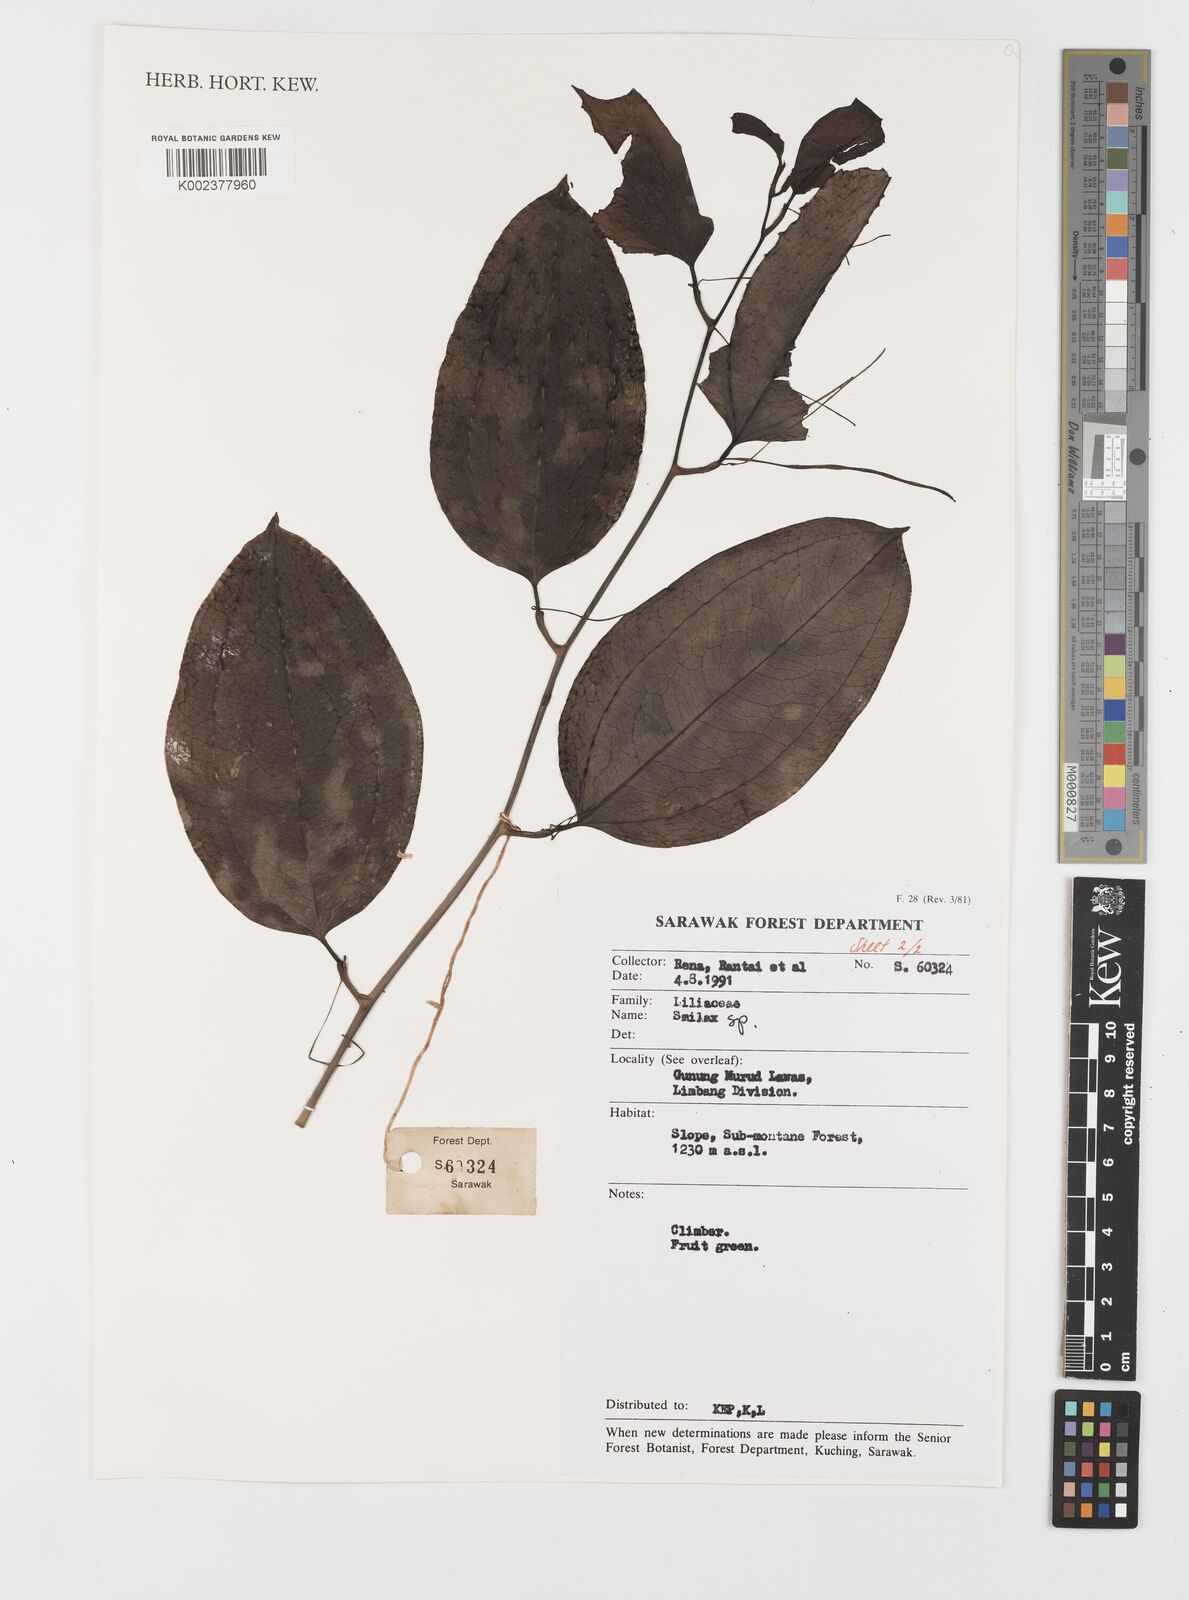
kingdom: Plantae
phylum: Tracheophyta
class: Liliopsida
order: Liliales
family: Smilacaceae
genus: Smilax
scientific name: Smilax
